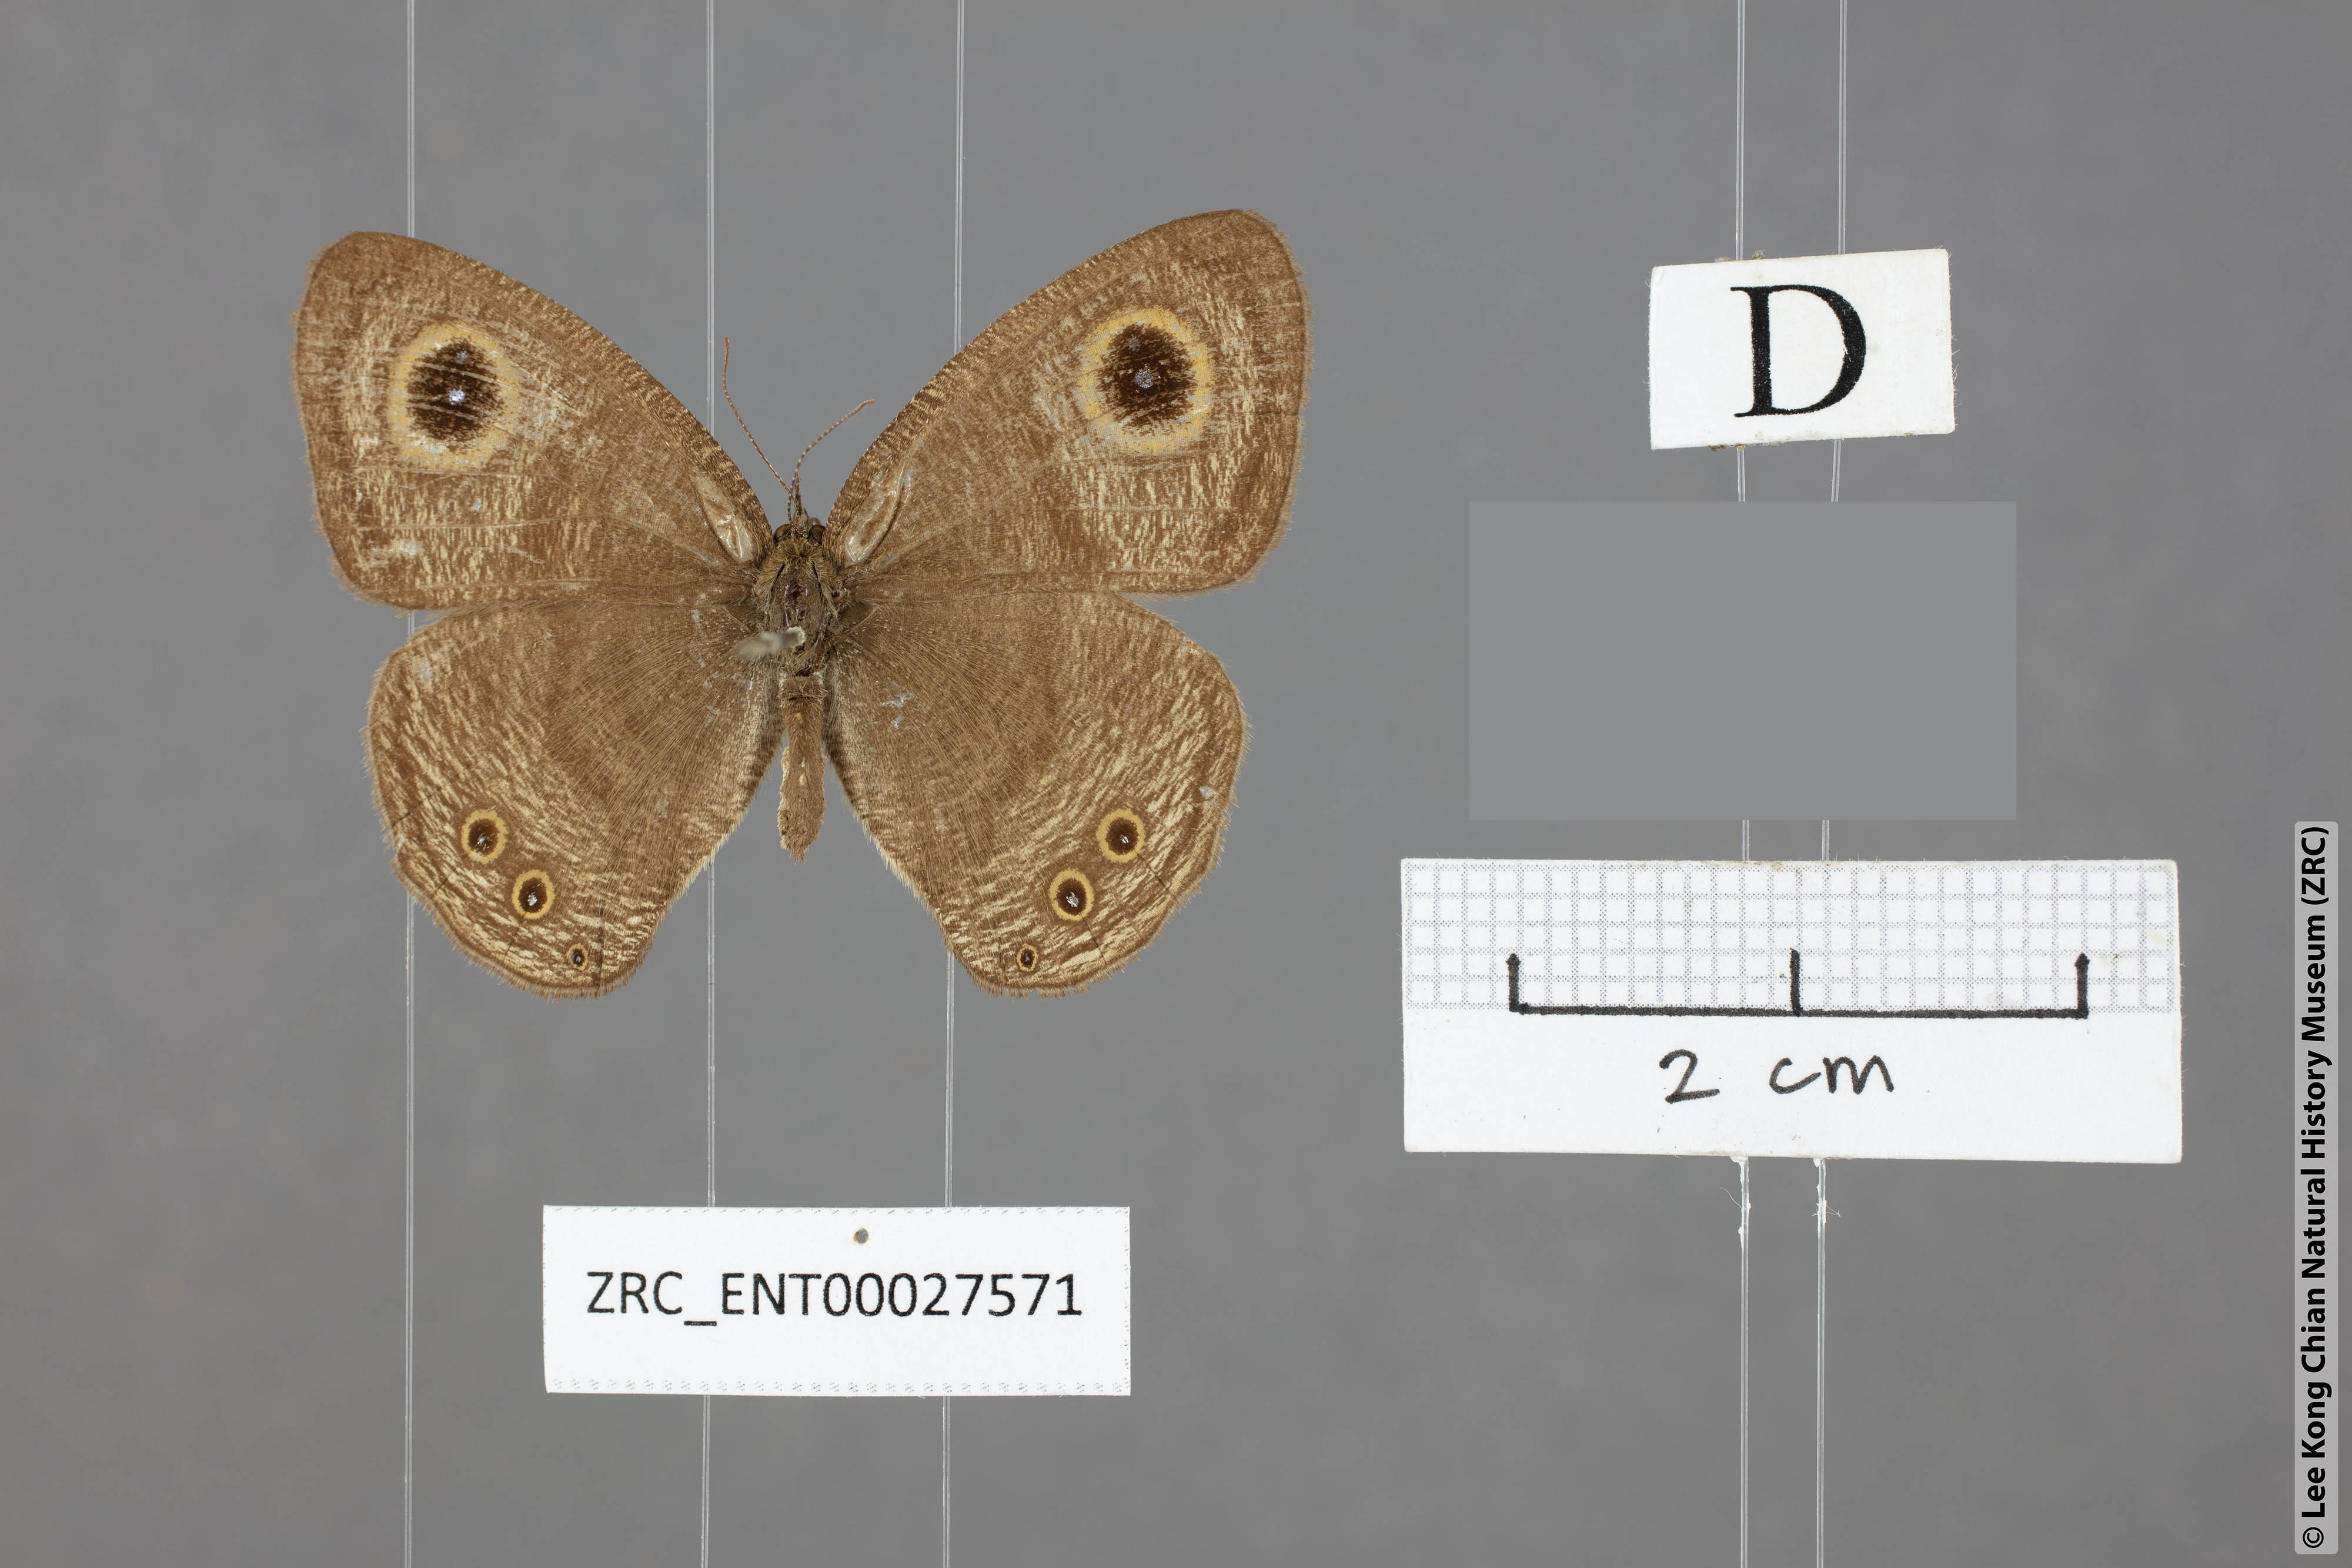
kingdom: Animalia
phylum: Arthropoda
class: Insecta
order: Lepidoptera
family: Nymphalidae
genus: Ypthima
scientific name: Ypthima savara
